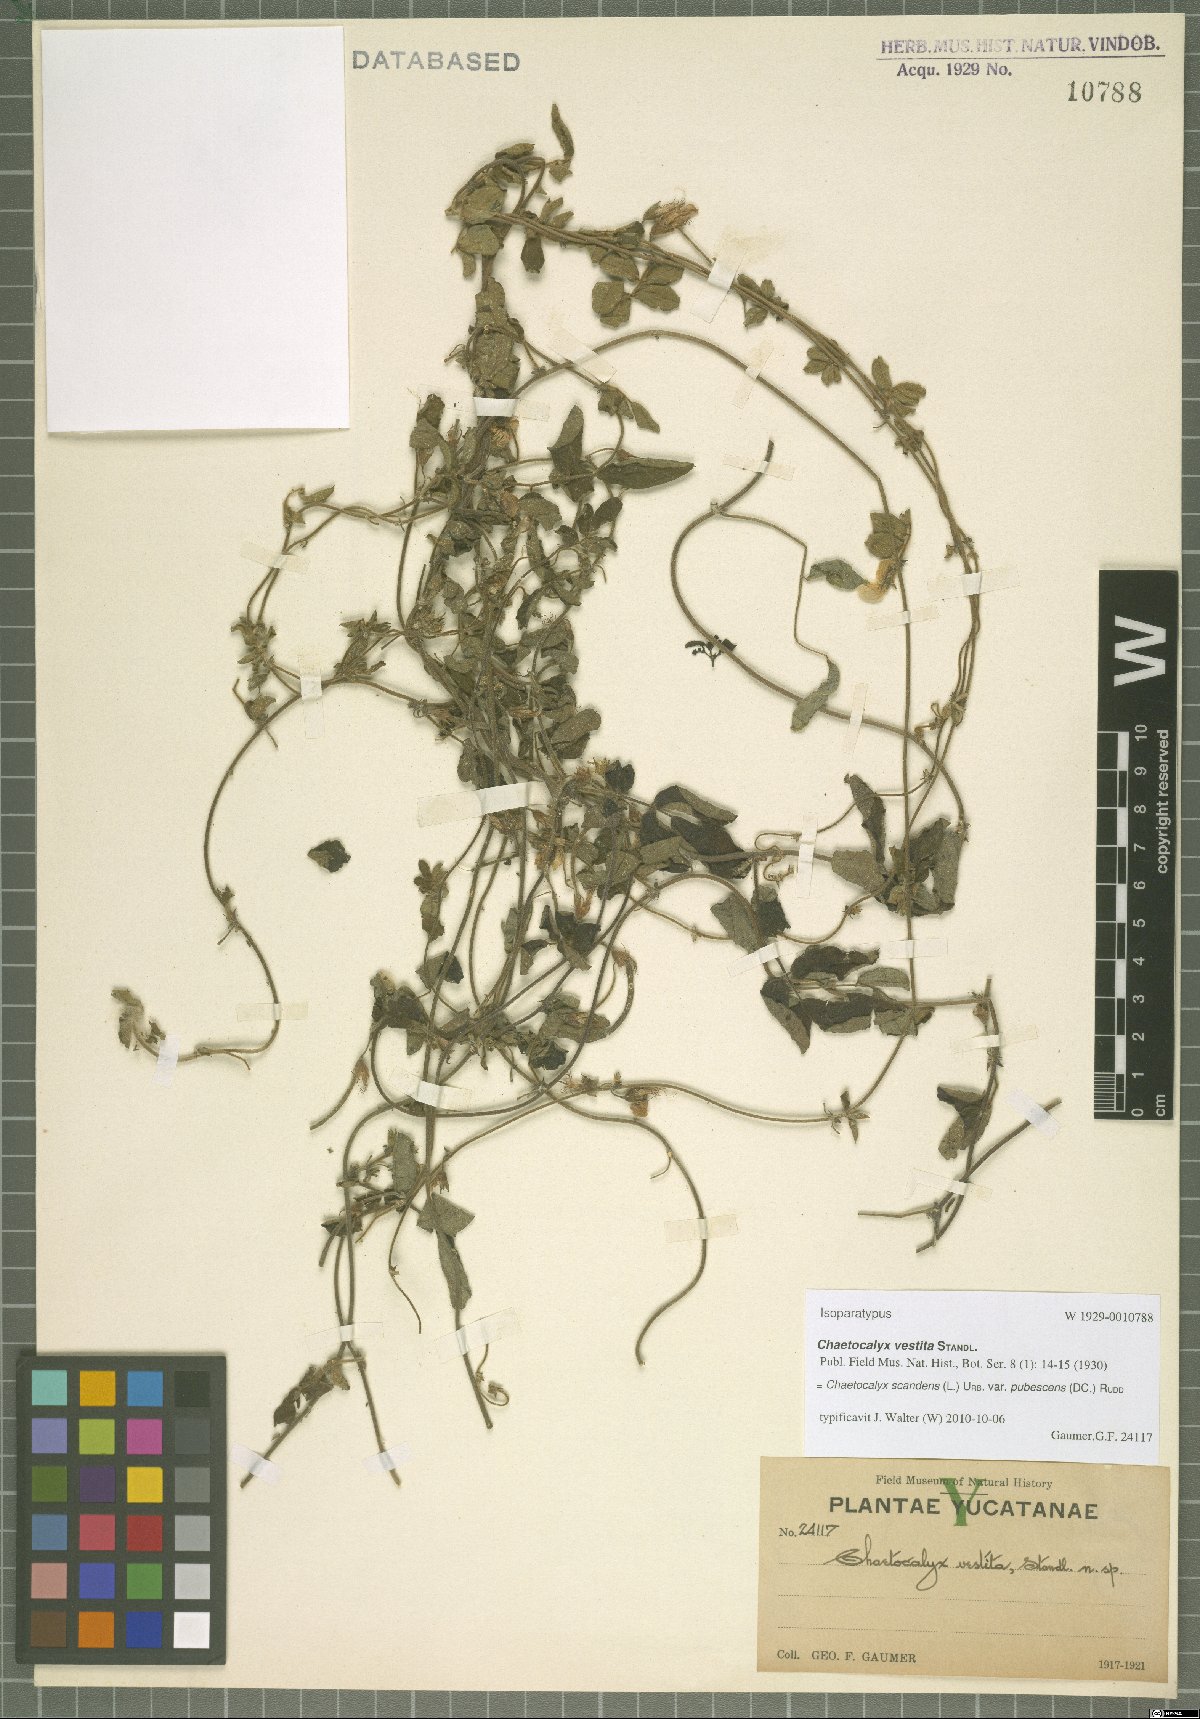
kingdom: Plantae
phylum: Tracheophyta
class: Magnoliopsida
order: Fabales
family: Fabaceae
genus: Nissolia
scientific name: Nissolia vincentina
